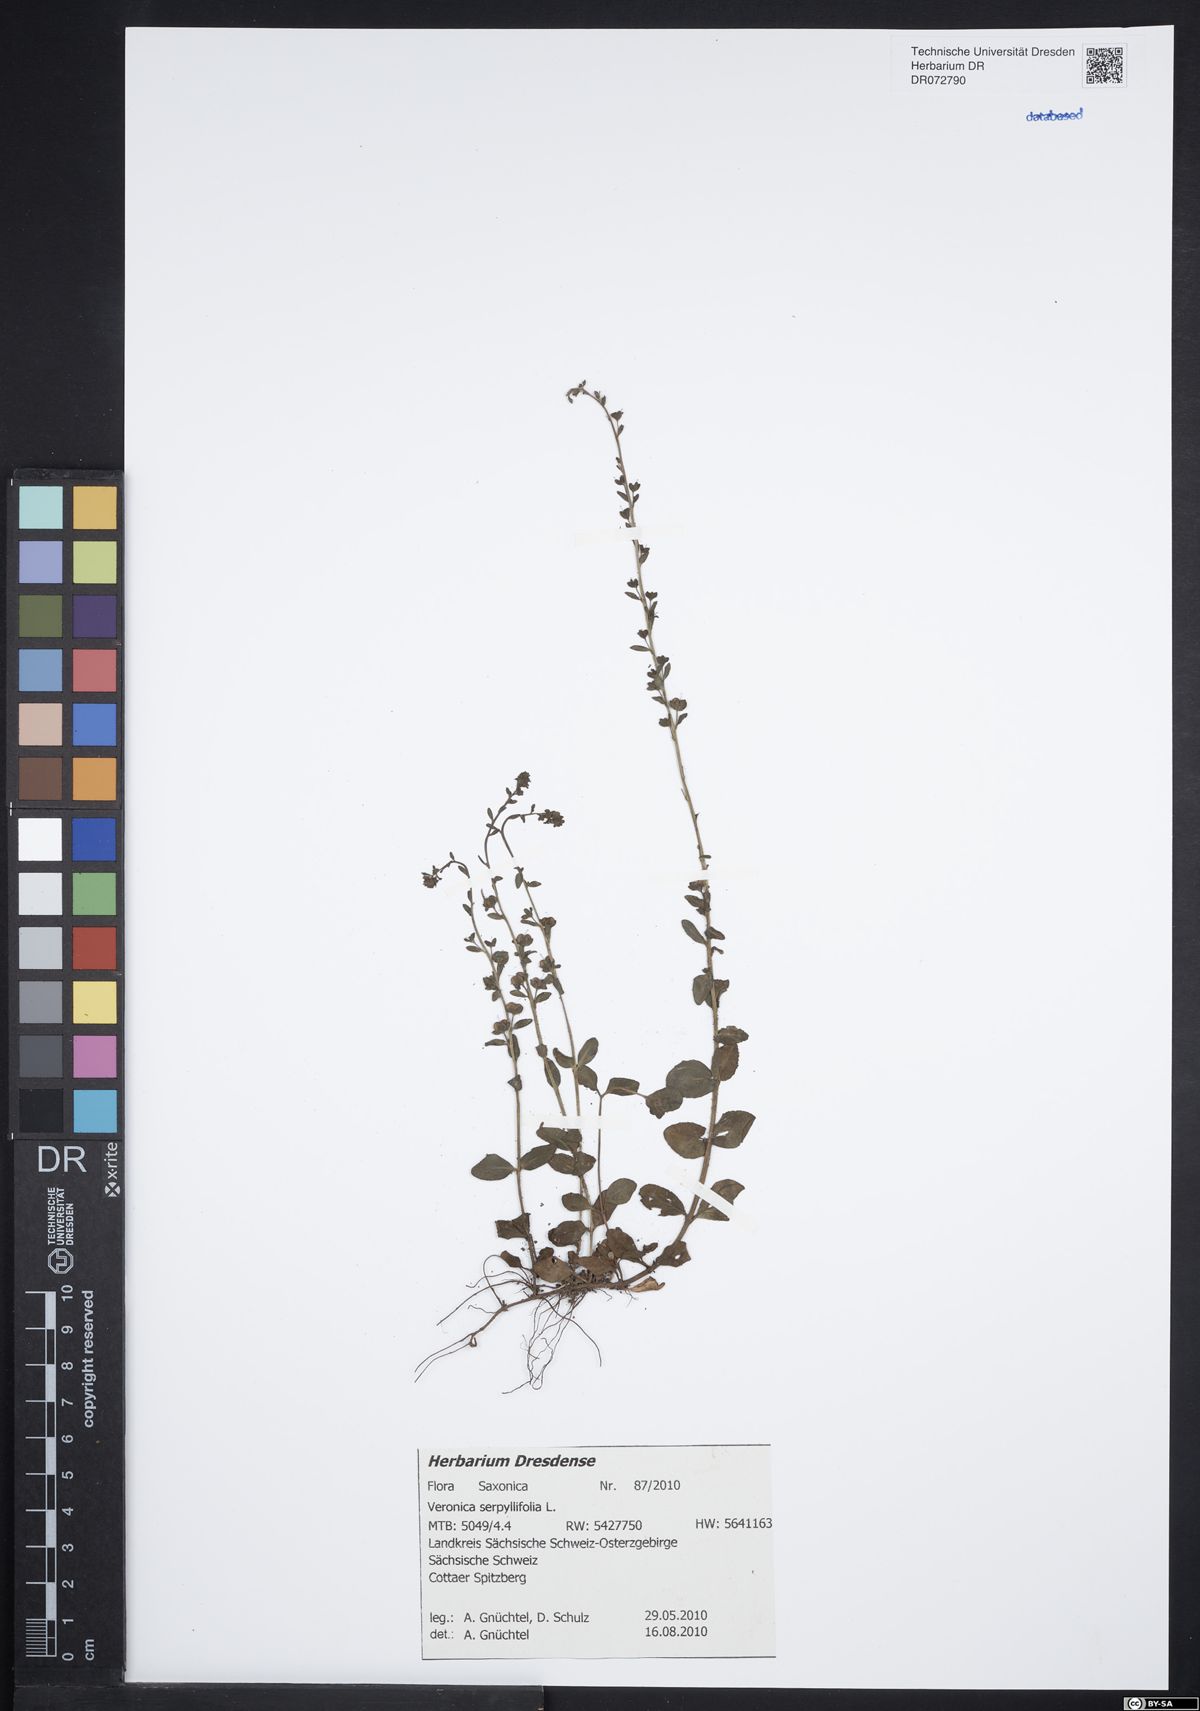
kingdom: Plantae
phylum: Tracheophyta
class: Magnoliopsida
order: Lamiales
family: Plantaginaceae
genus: Veronica
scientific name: Veronica serpyllifolia
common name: Thyme-leaved speedwell
